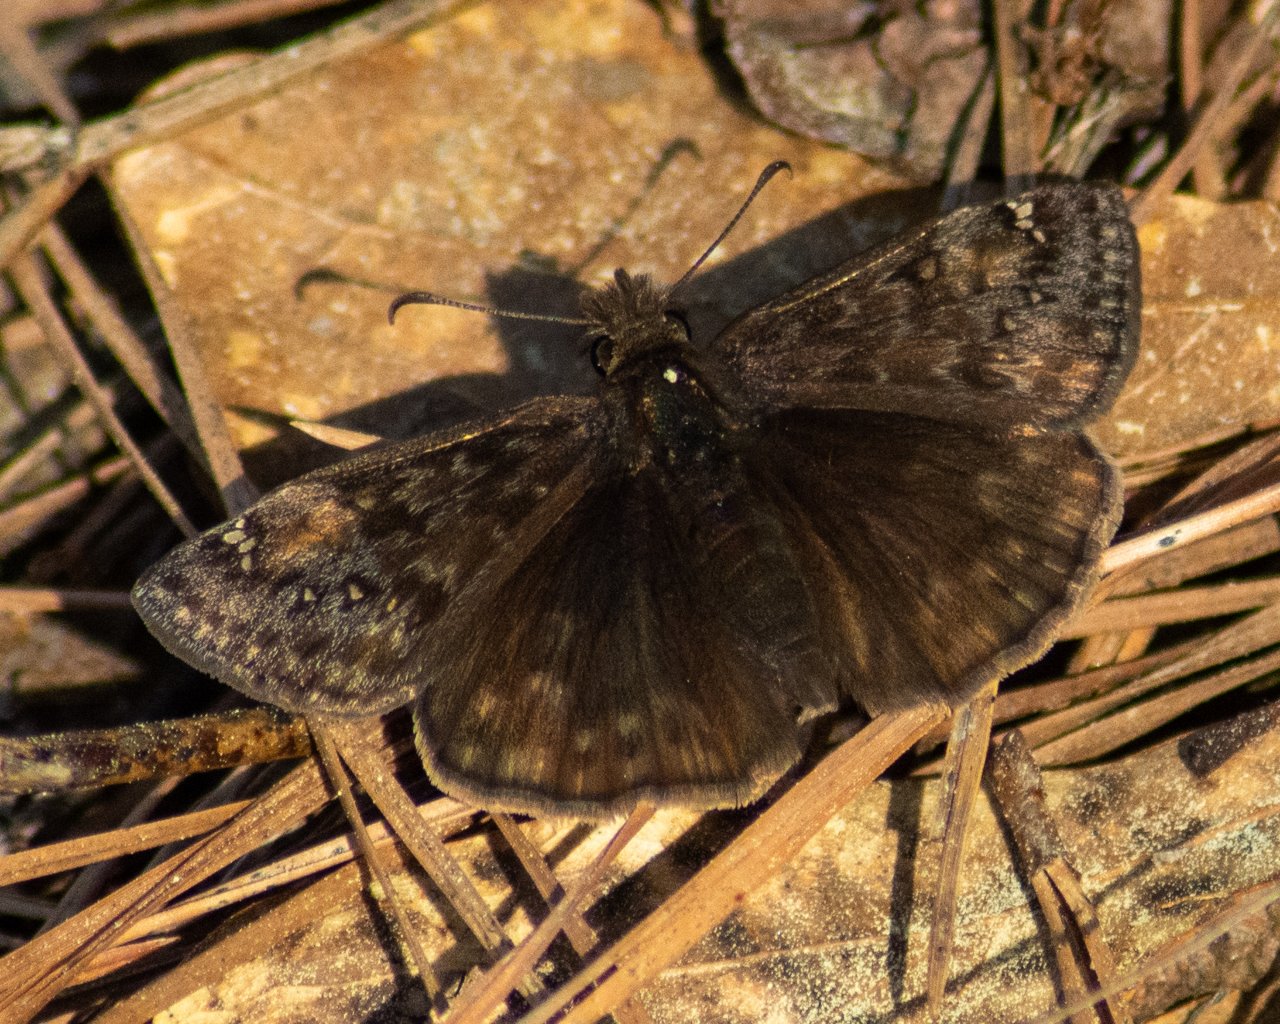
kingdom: Animalia
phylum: Arthropoda
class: Insecta
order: Lepidoptera
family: Hesperiidae
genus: Gesta
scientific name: Gesta
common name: Juvenal's Duskywing
